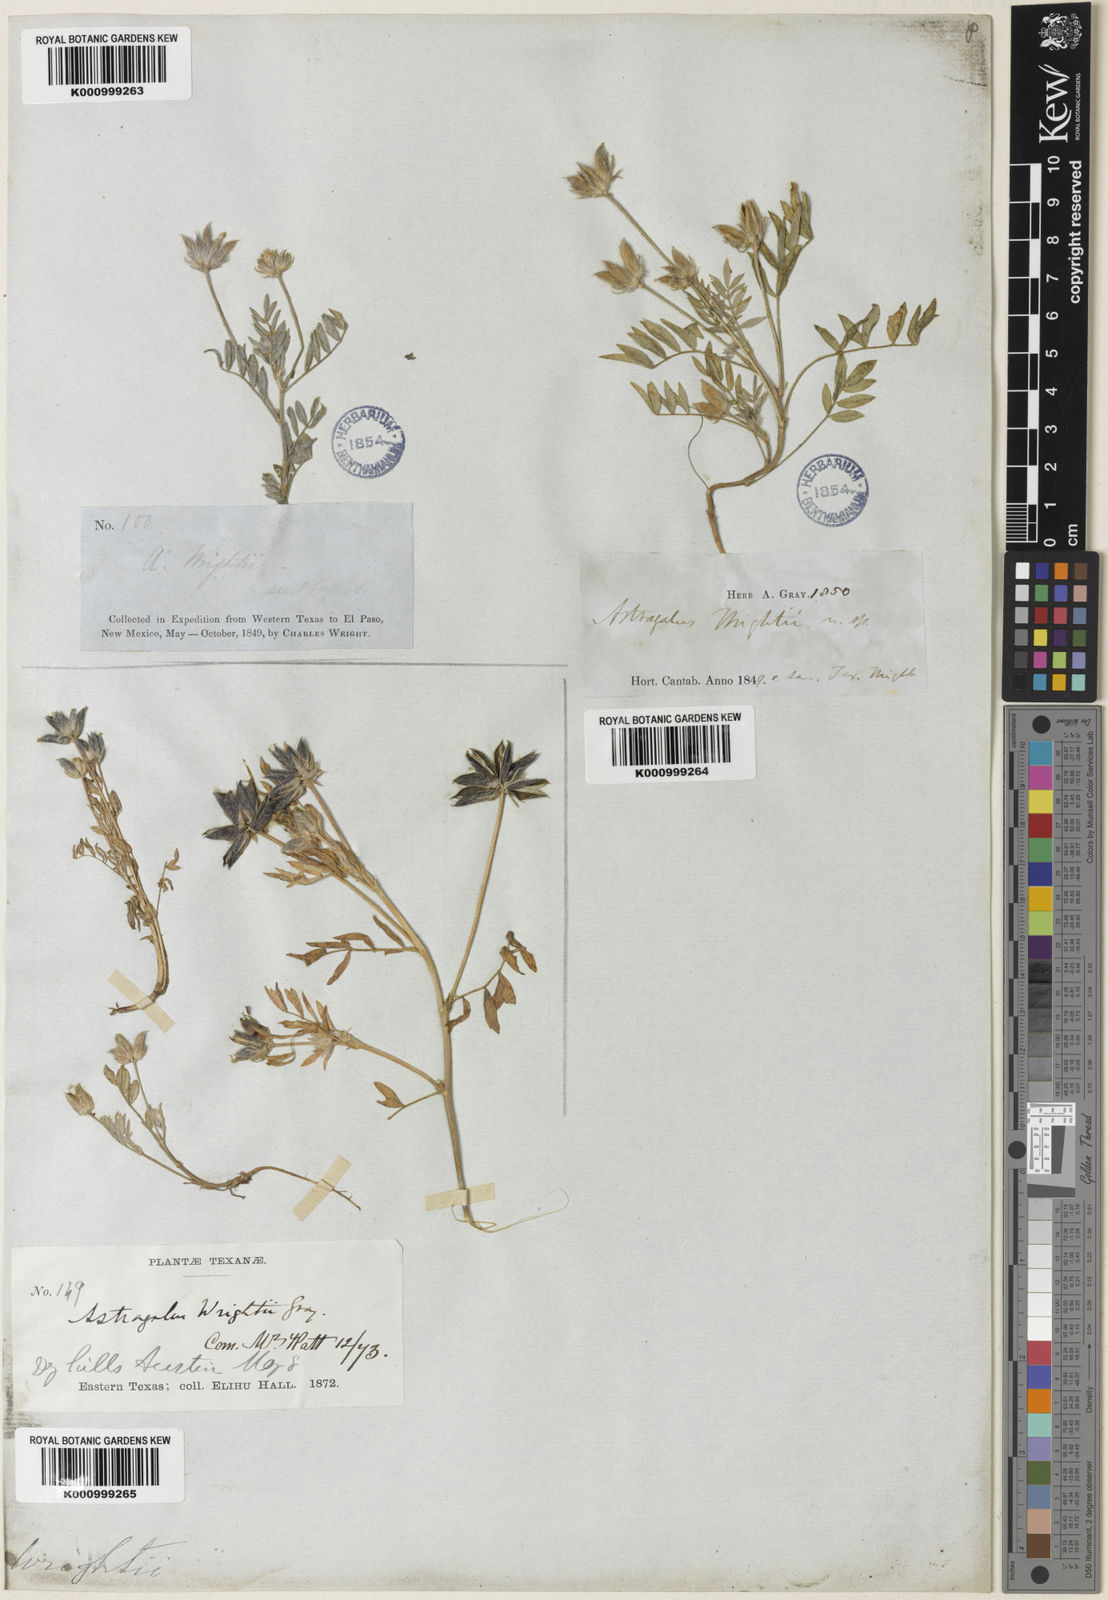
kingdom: Plantae
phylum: Tracheophyta
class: Magnoliopsida
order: Fabales
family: Fabaceae
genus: Astragalus
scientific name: Astragalus wrightii
